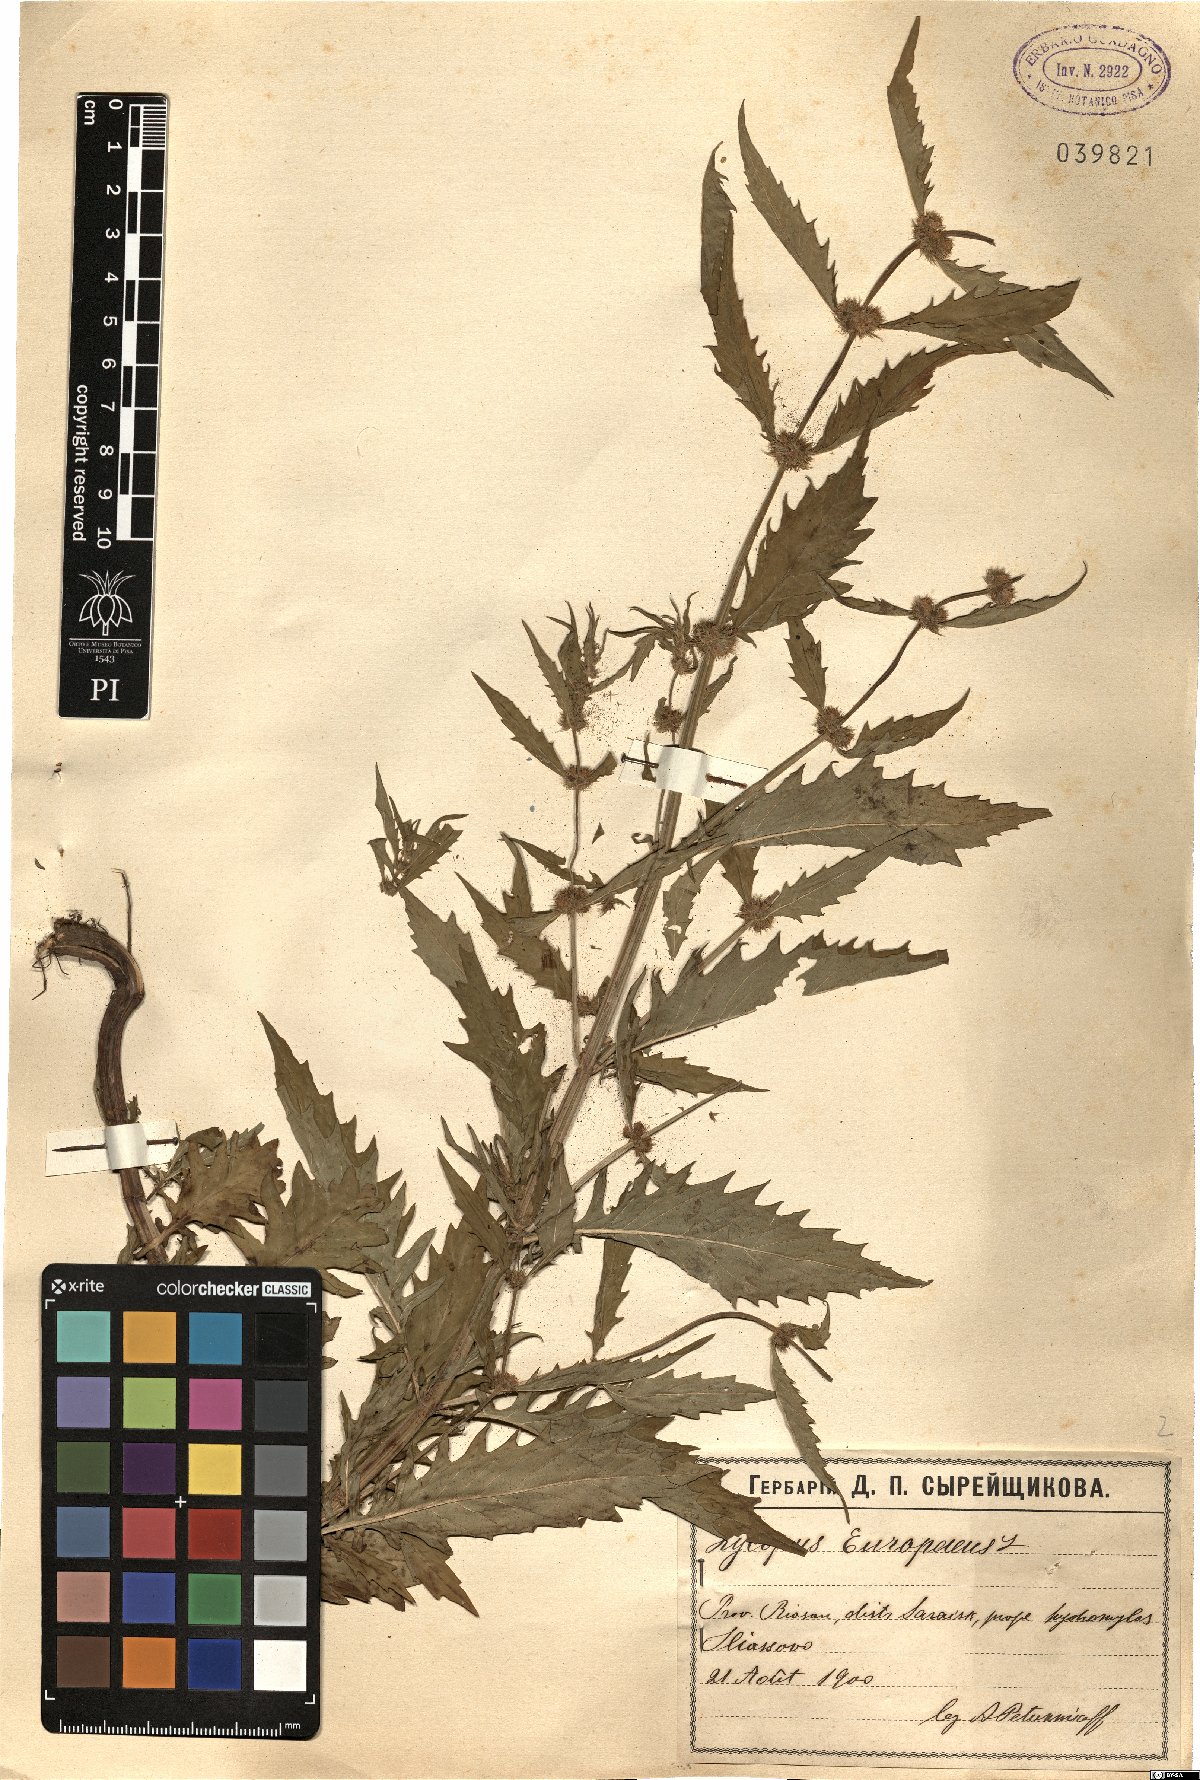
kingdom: Plantae
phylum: Tracheophyta
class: Magnoliopsida
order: Lamiales
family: Lamiaceae
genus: Lycopus
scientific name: Lycopus europaeus
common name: European bugleweed
